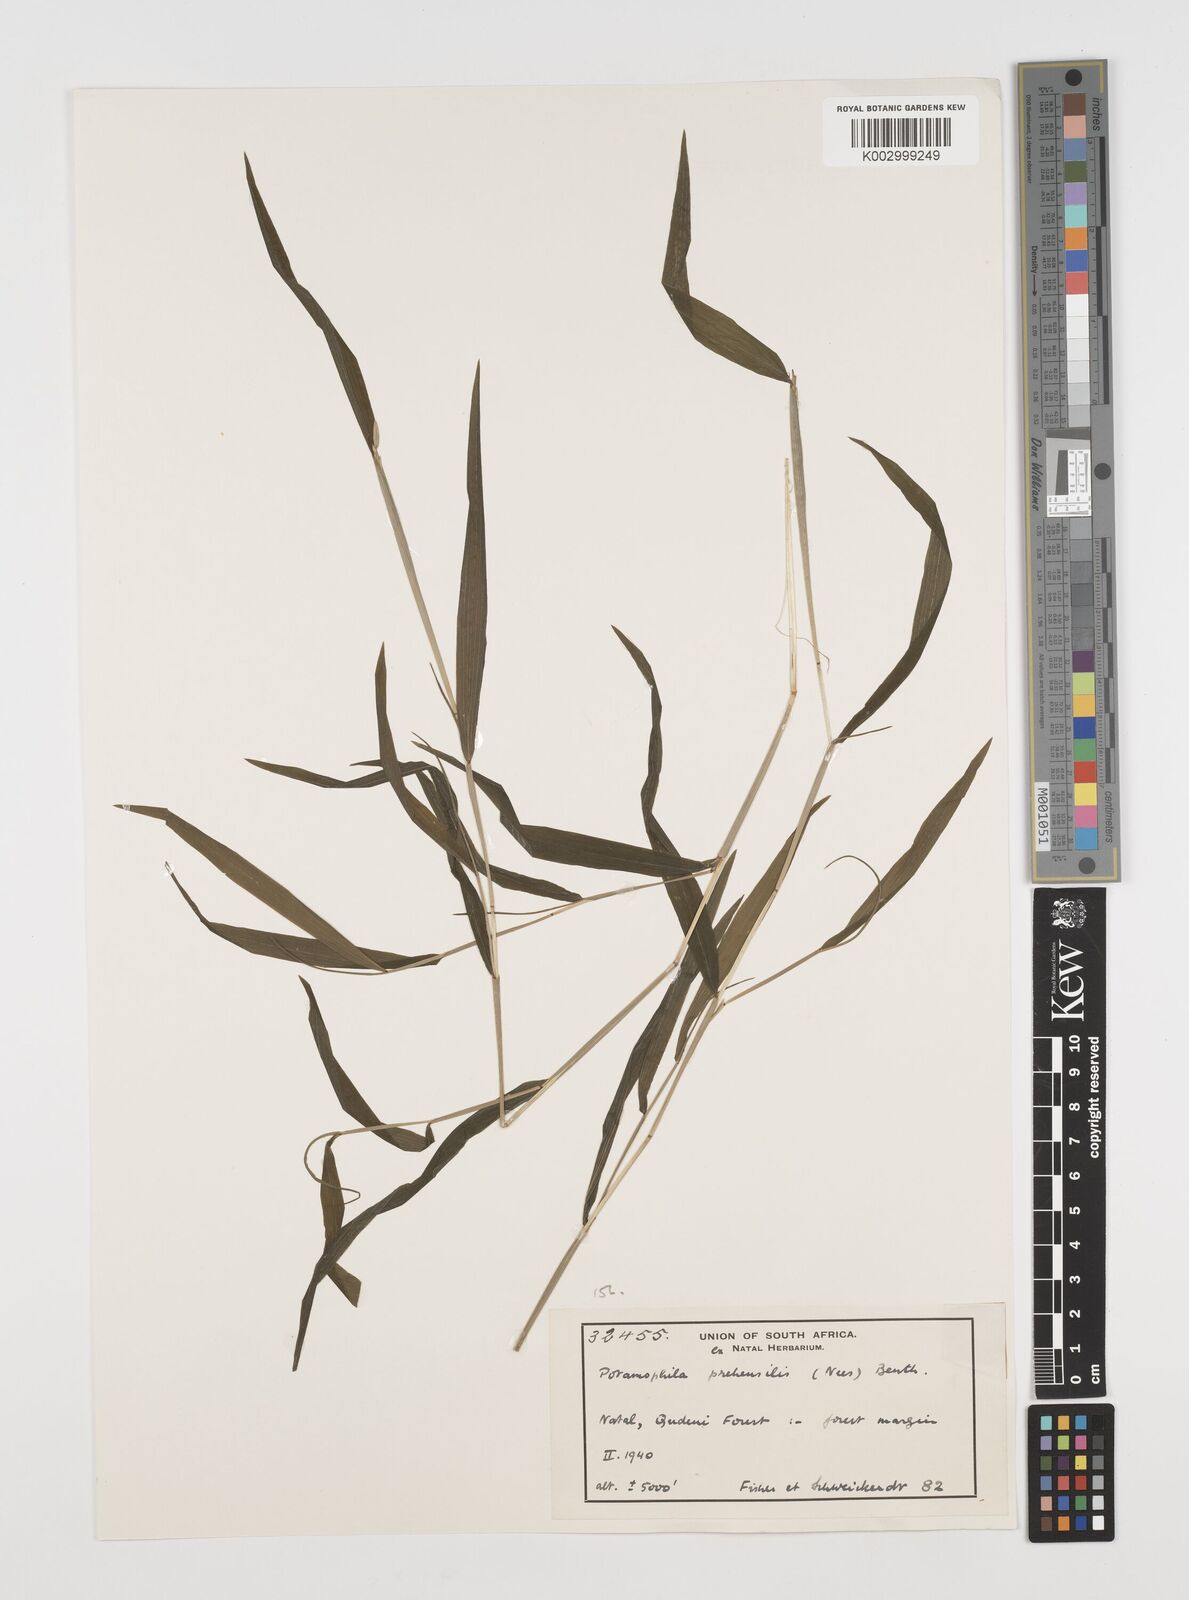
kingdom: Plantae
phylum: Tracheophyta
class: Liliopsida
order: Poales
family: Poaceae
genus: Prosphytochloa
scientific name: Prosphytochloa prehensilis
